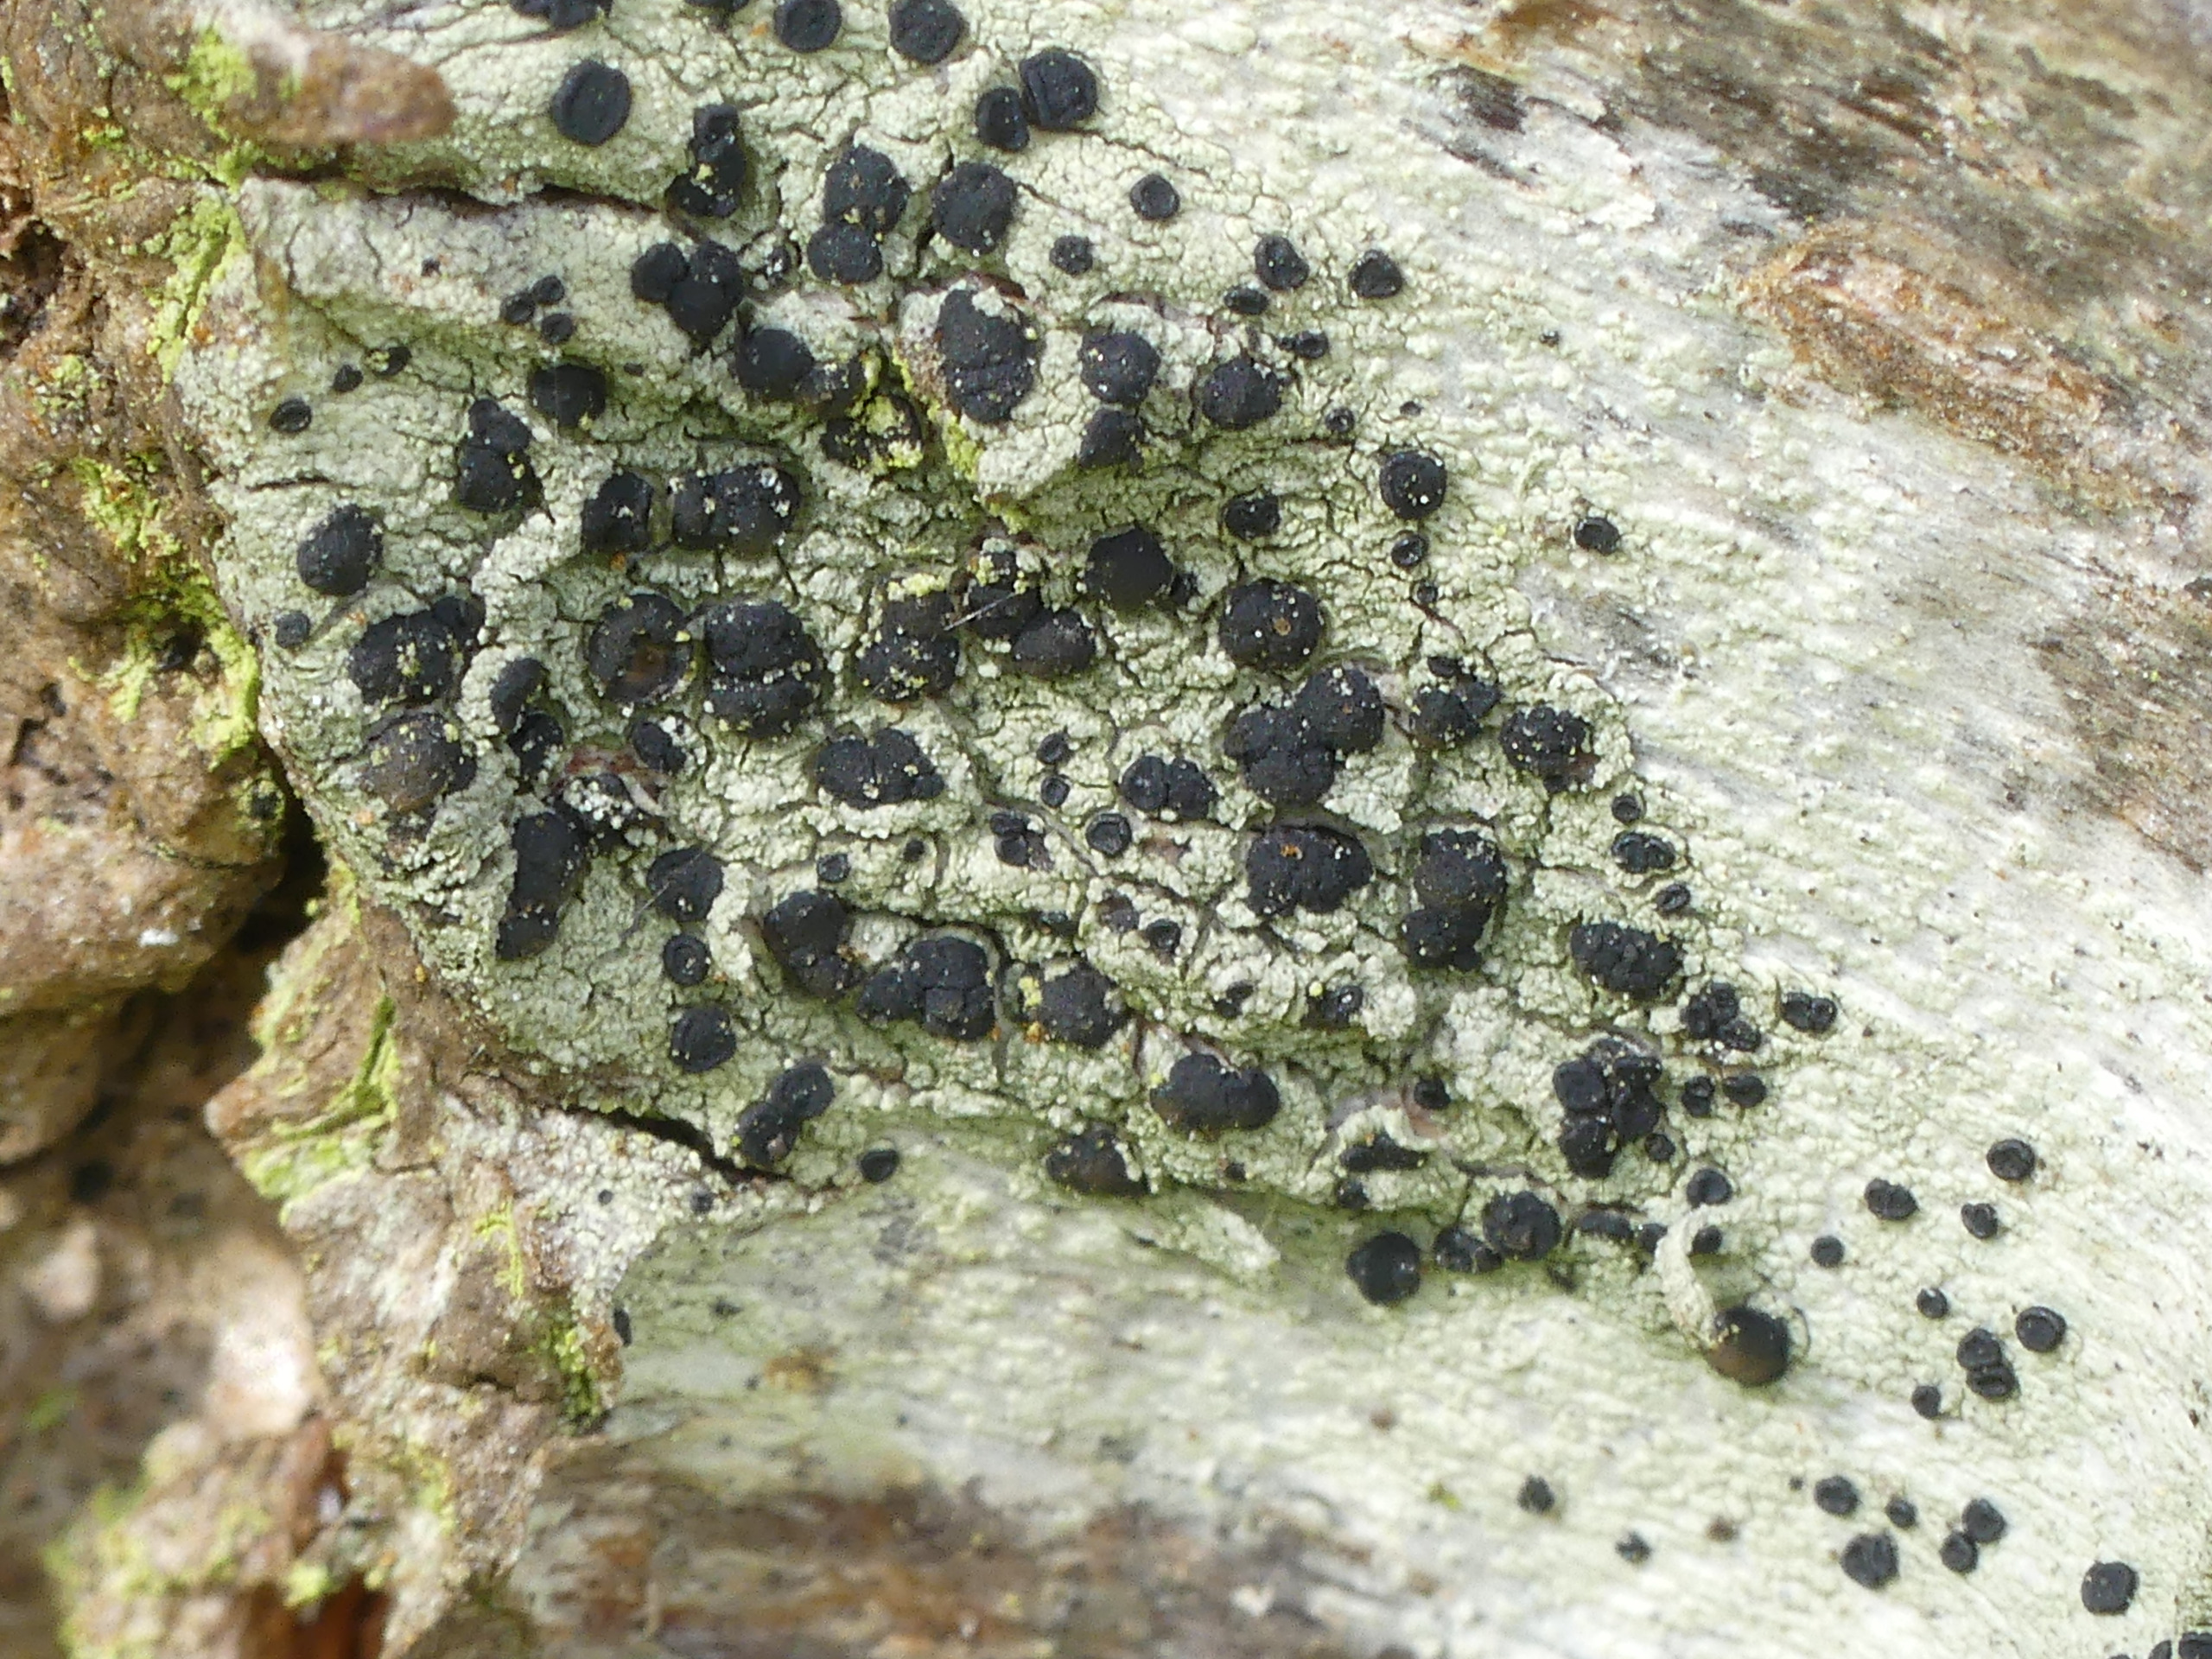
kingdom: Fungi
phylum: Ascomycota
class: Lecanoromycetes
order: Lecanorales
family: Lecanoraceae
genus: Lecidella
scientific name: Lecidella elaeochroma
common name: Grågrøn skivelav
